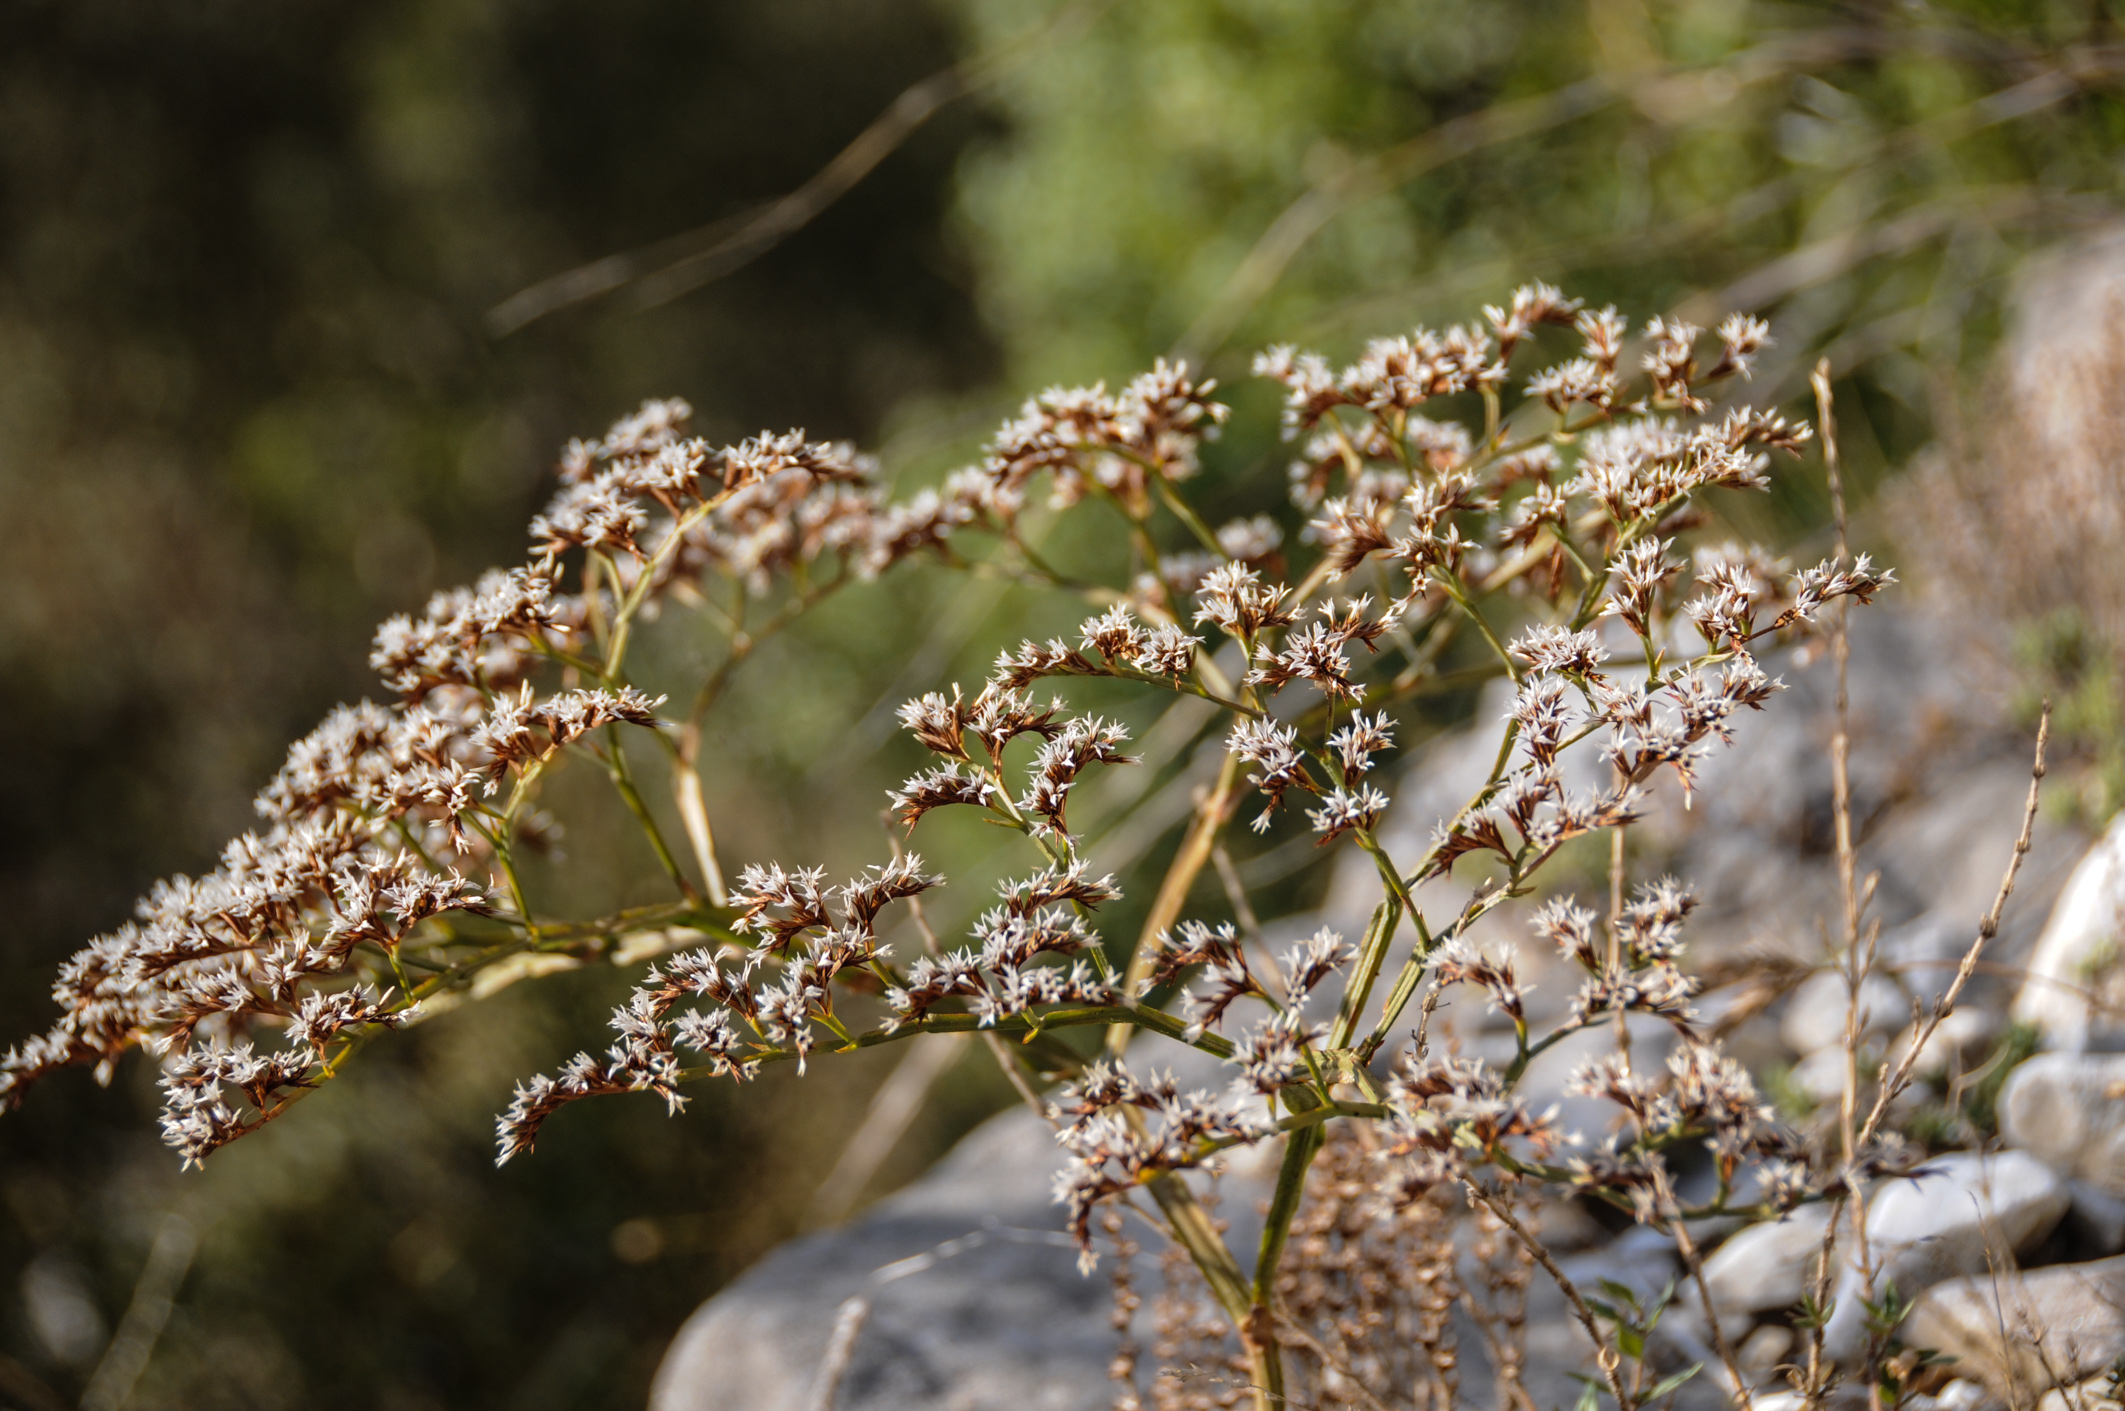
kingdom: Plantae
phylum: Tracheophyta
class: Magnoliopsida
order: Caryophyllales
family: Plumbaginaceae
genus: Goniolimon
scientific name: Goniolimon incanum
